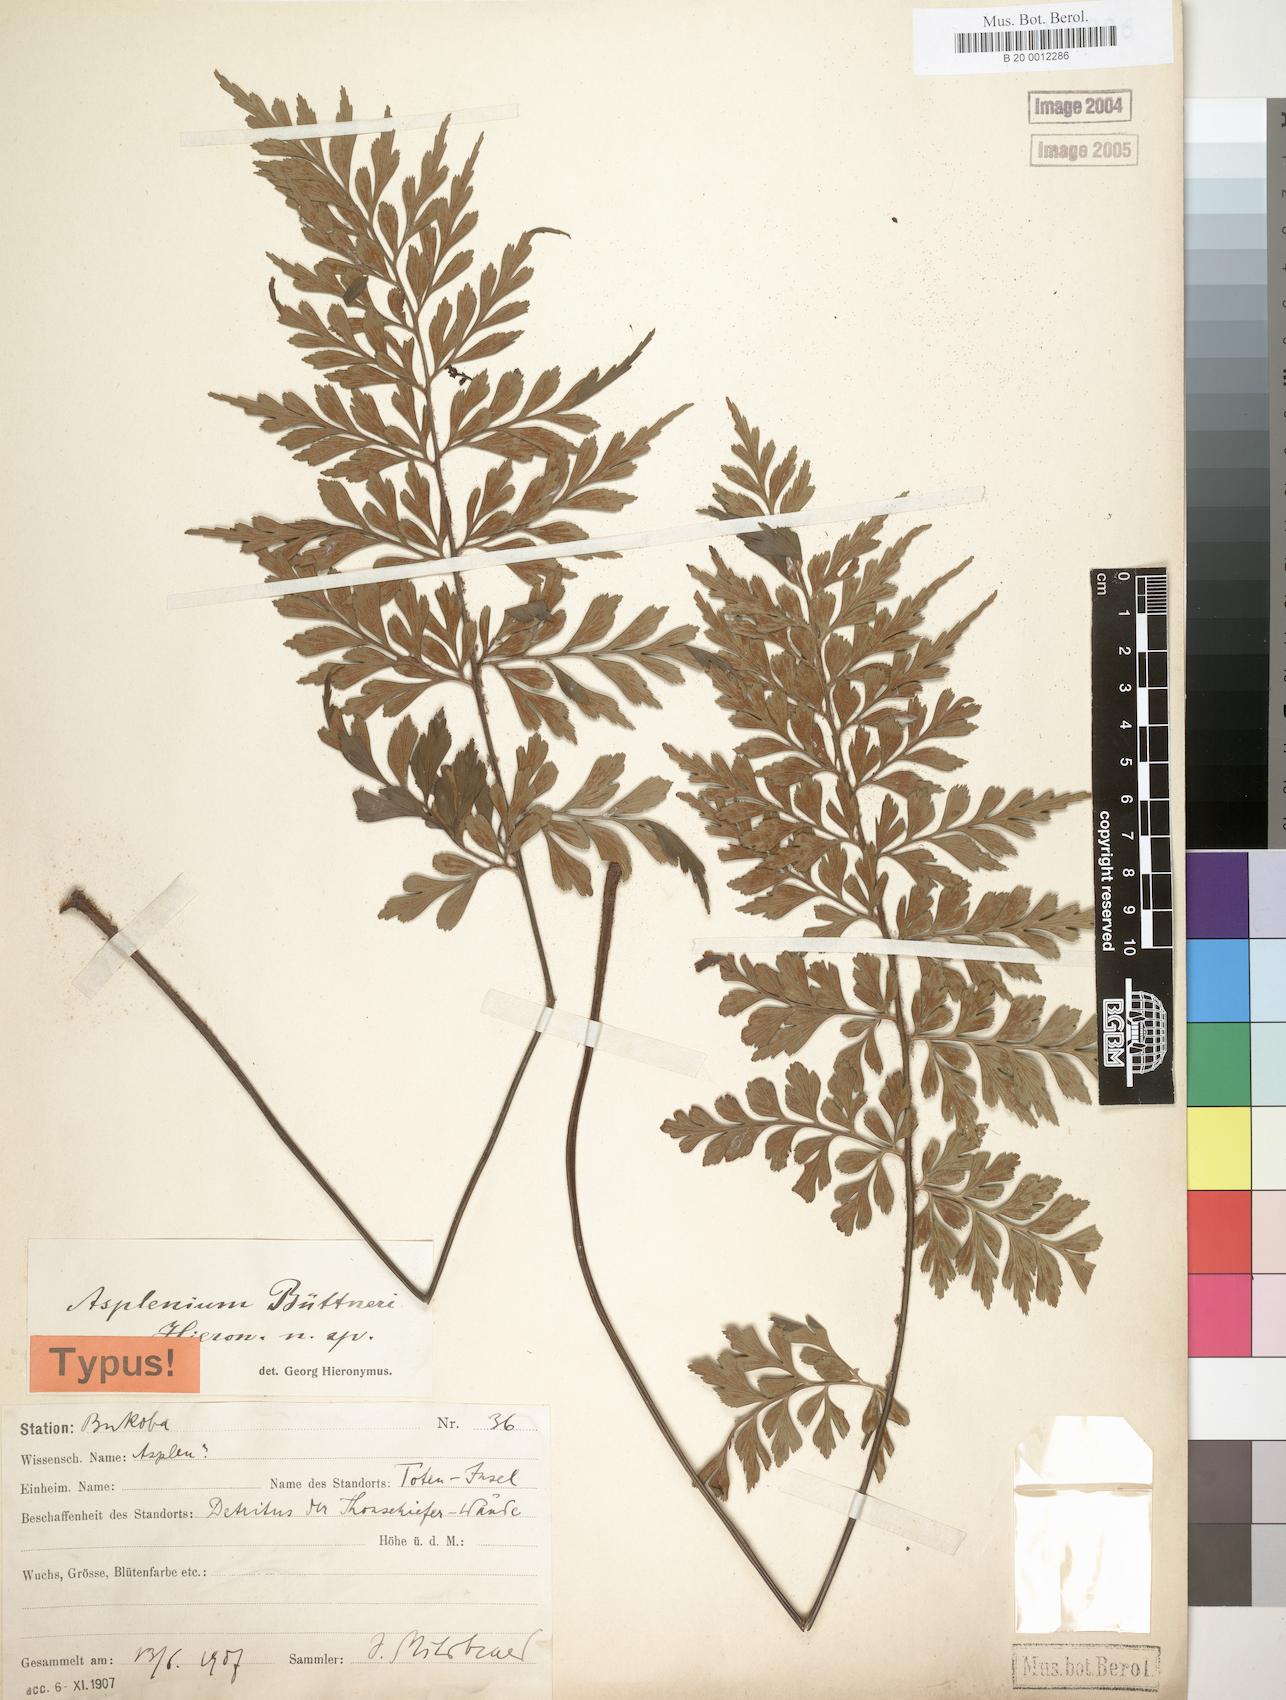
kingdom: Plantae
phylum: Tracheophyta
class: Polypodiopsida
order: Polypodiales
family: Aspleniaceae
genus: Asplenium
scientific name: Asplenium musiraense
